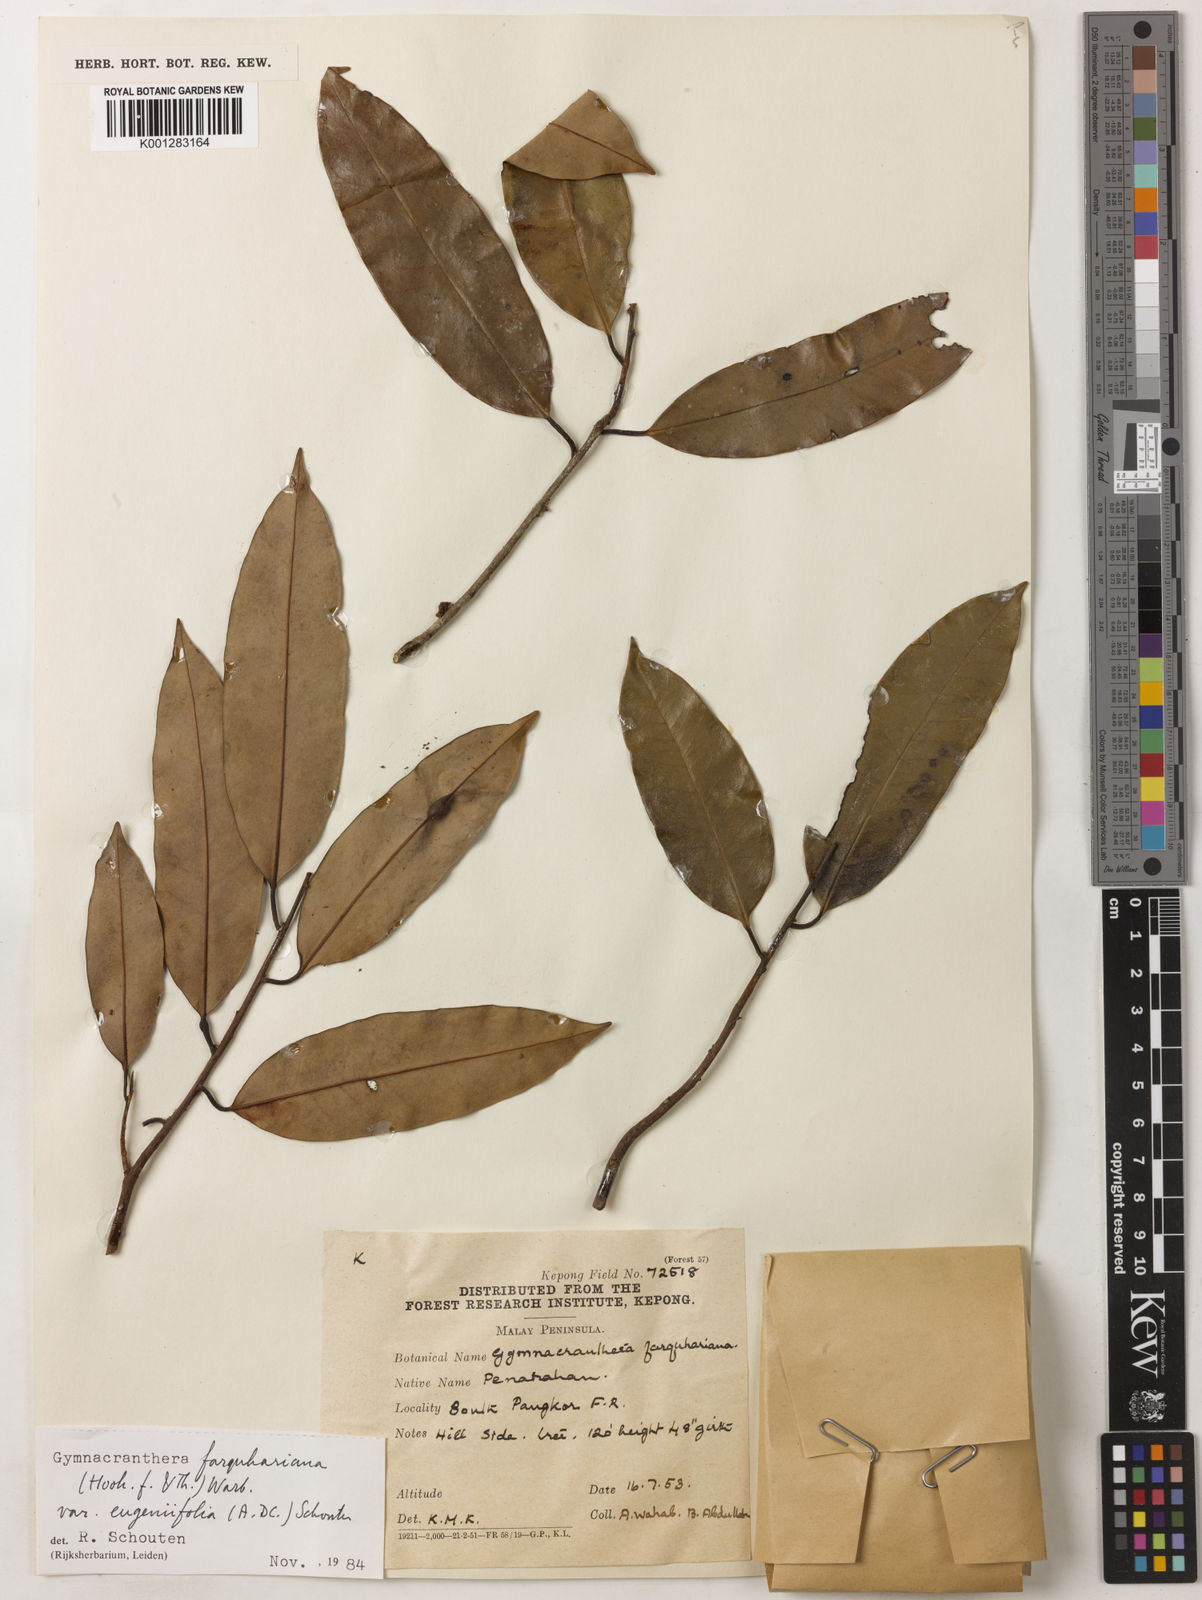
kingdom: Plantae
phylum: Tracheophyta
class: Magnoliopsida
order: Magnoliales
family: Myristicaceae
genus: Gymnacranthera
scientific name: Gymnacranthera farquhariana
